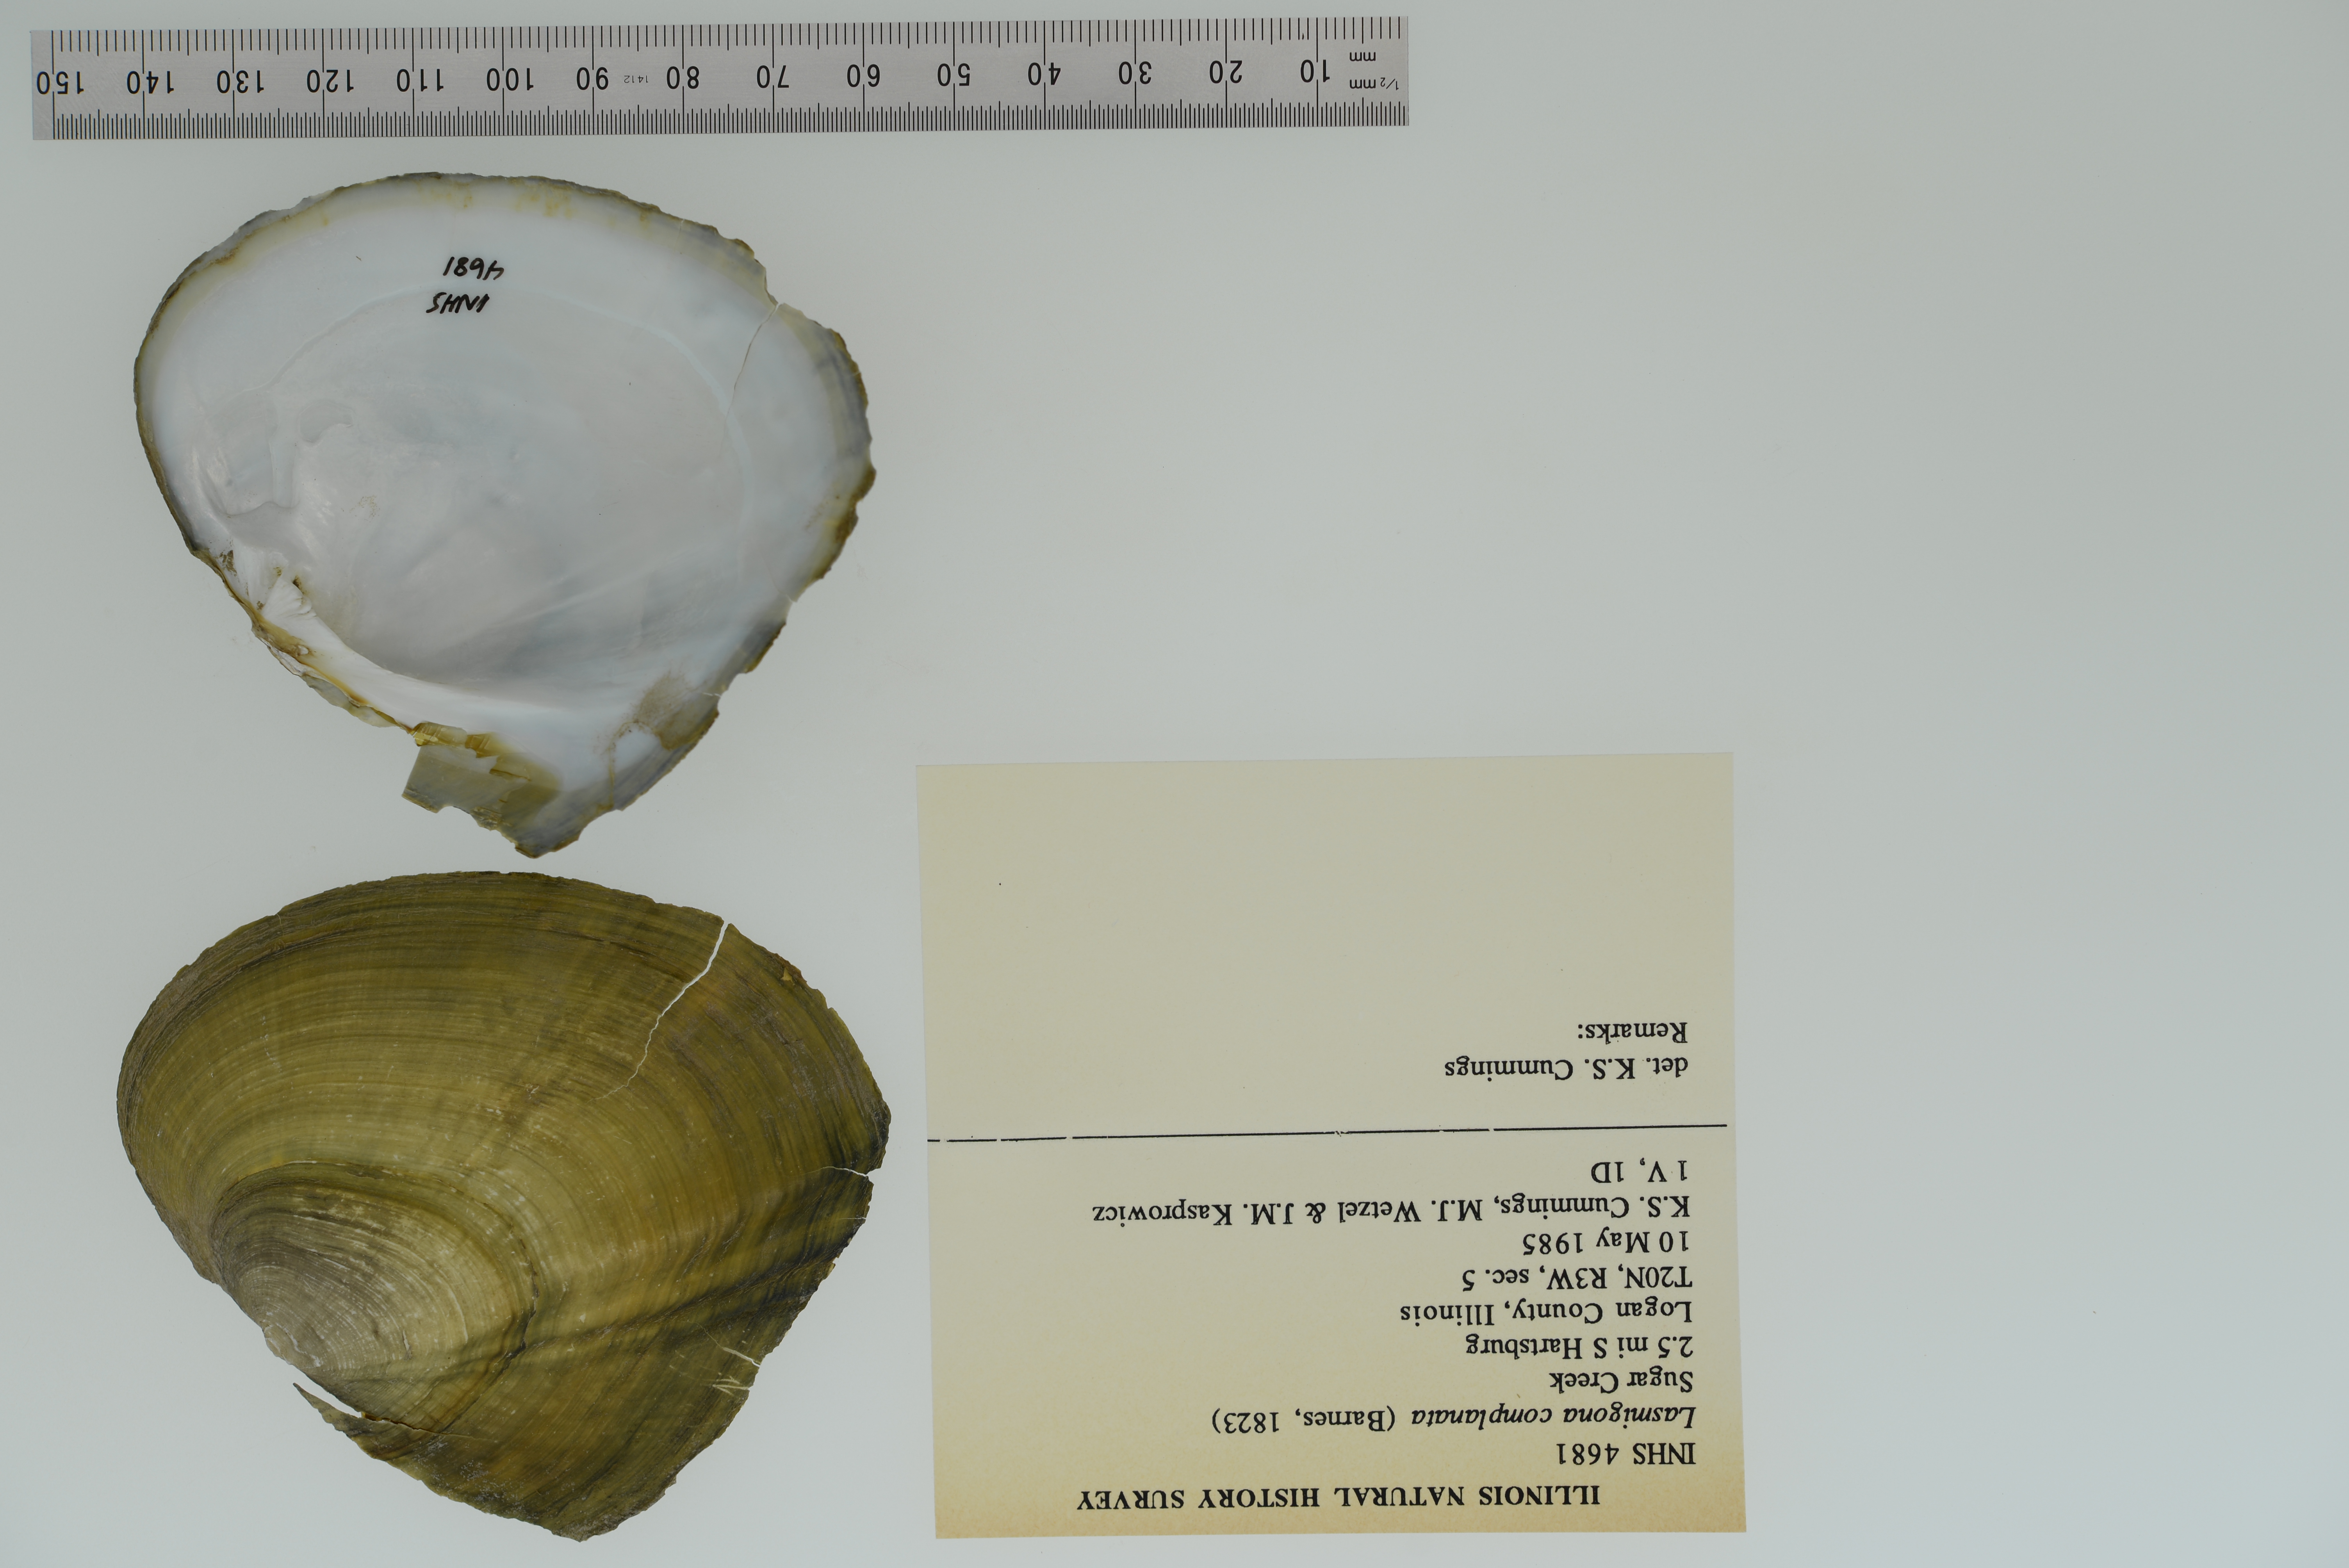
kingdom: Animalia
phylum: Mollusca
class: Bivalvia
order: Unionida
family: Unionidae
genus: Lasmigona
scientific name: Lasmigona complanata
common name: White heelsplitter
